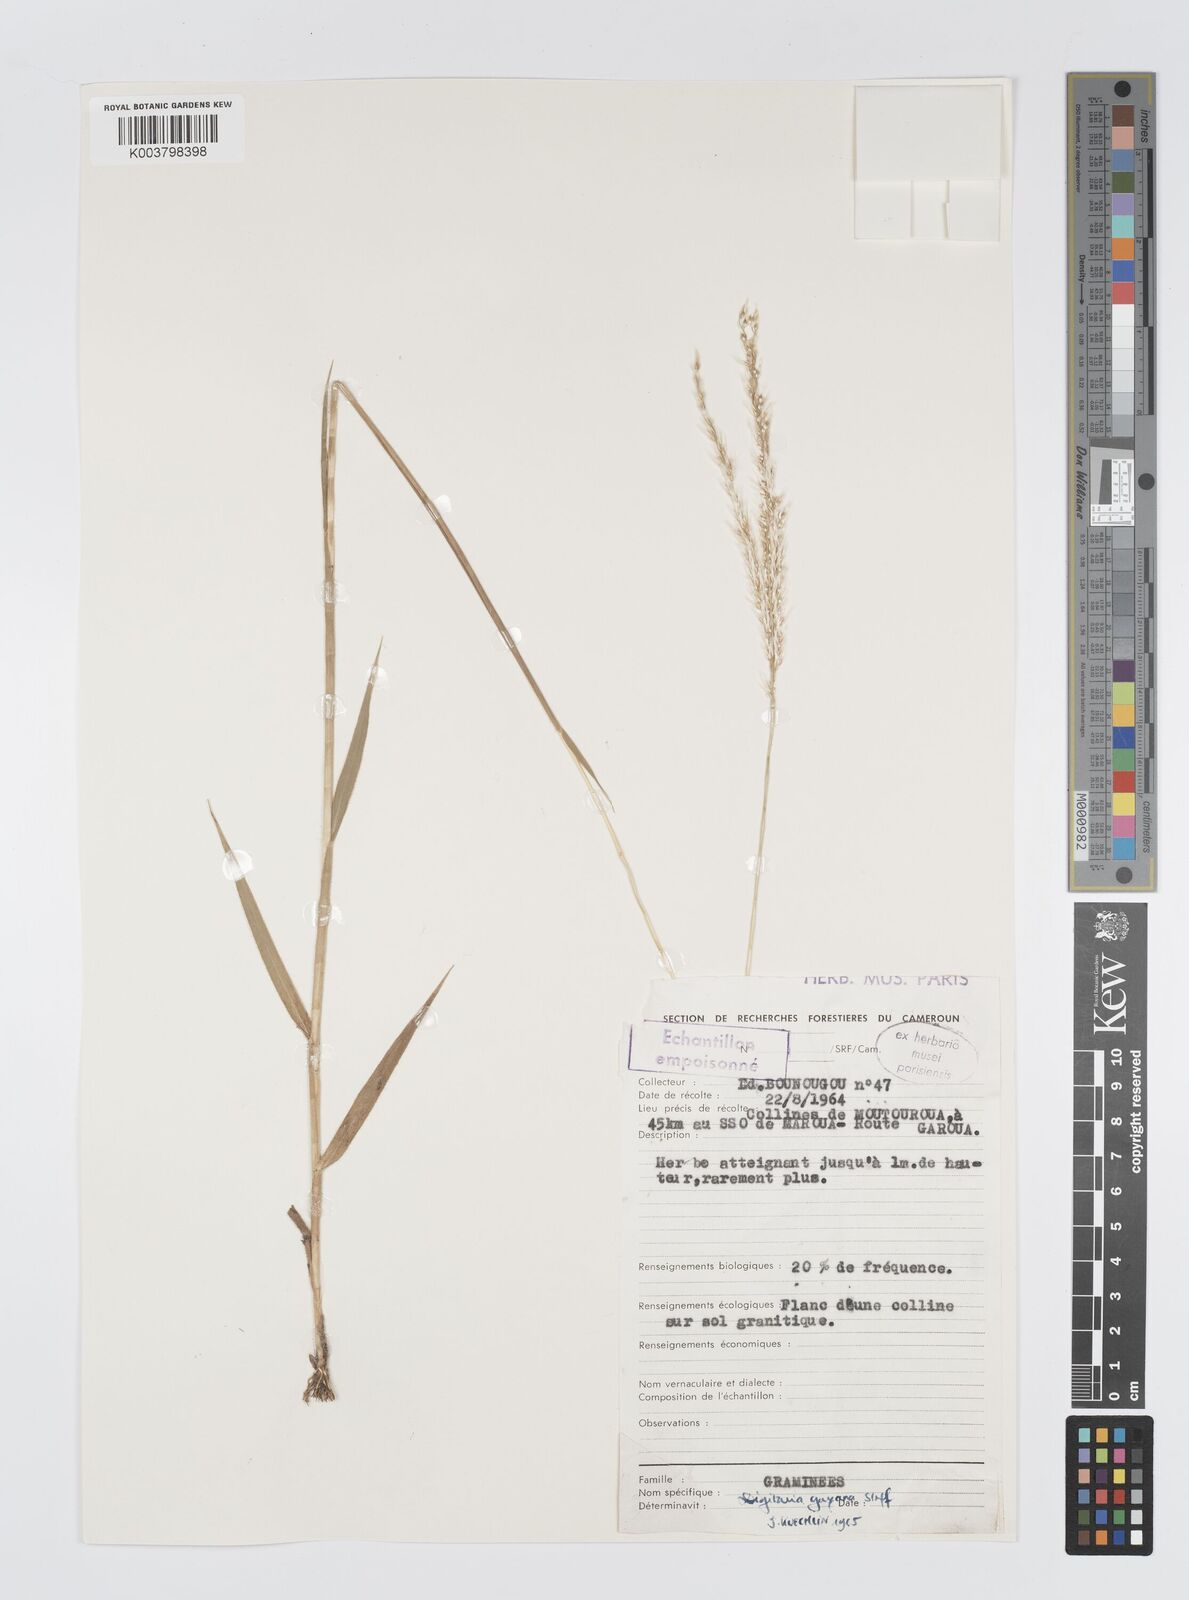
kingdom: Plantae
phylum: Tracheophyta
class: Liliopsida
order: Poales
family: Poaceae
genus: Digitaria
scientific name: Digitaria gayana
